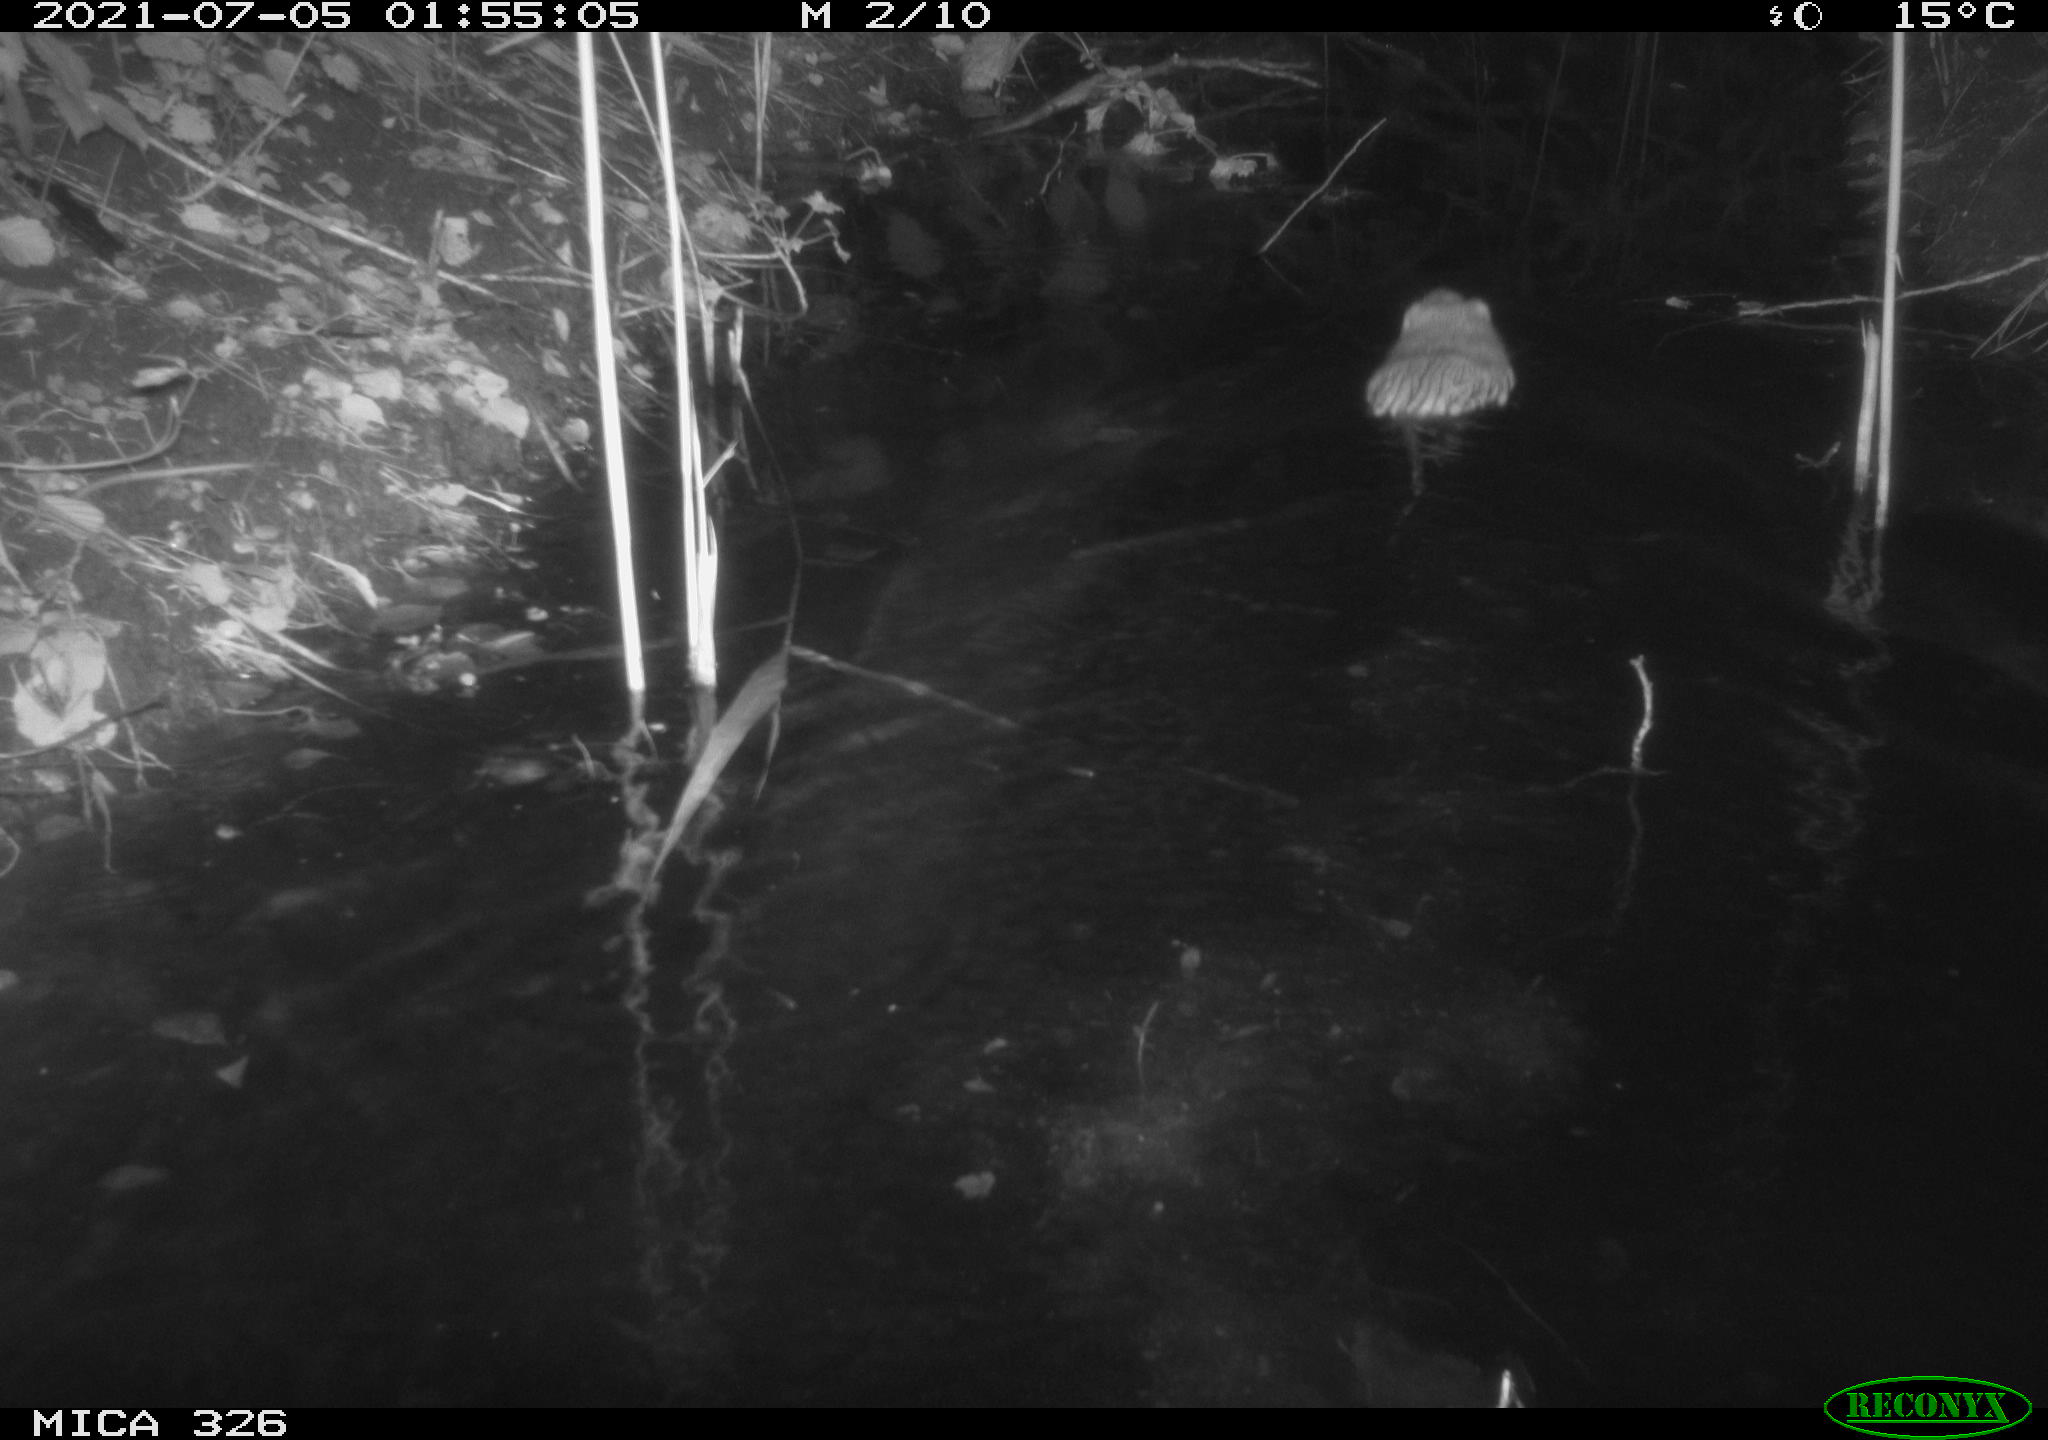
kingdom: Animalia
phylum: Chordata
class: Mammalia
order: Rodentia
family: Cricetidae
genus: Ondatra
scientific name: Ondatra zibethicus
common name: Muskrat
